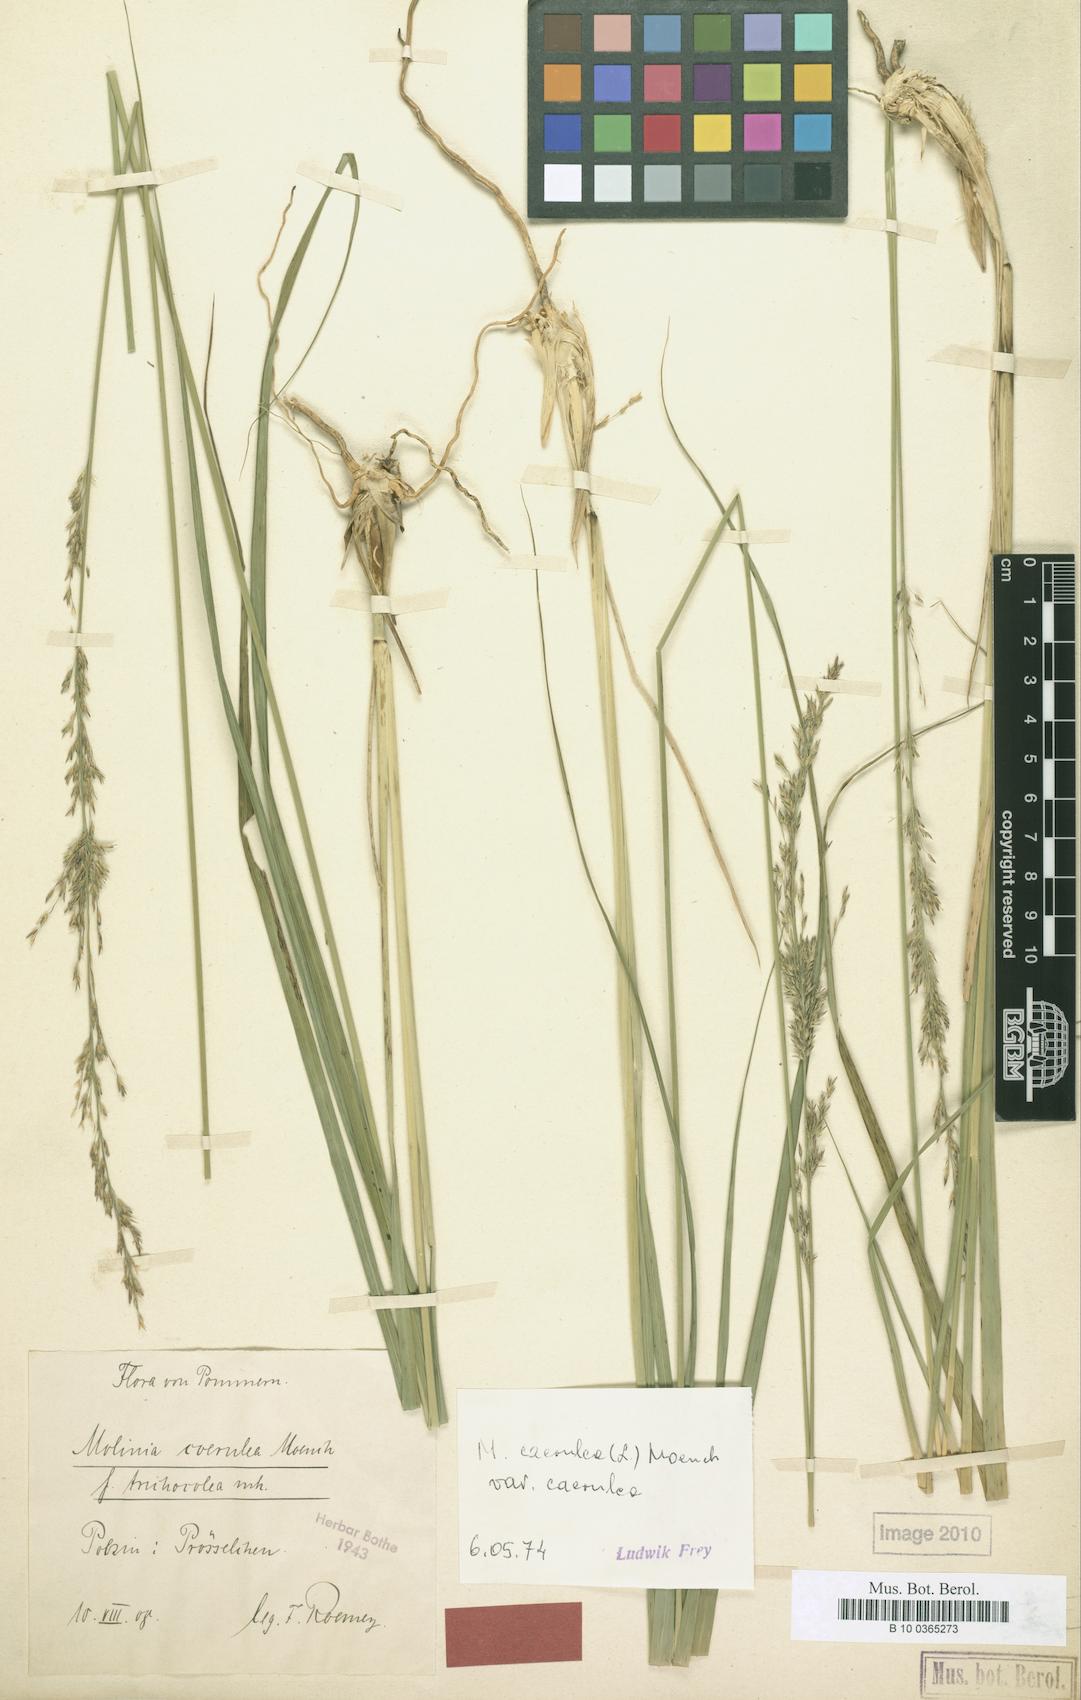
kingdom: Plantae
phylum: Tracheophyta
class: Liliopsida
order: Poales
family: Poaceae
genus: Molinia
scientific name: Molinia caerulea
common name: Purple moor-grass
